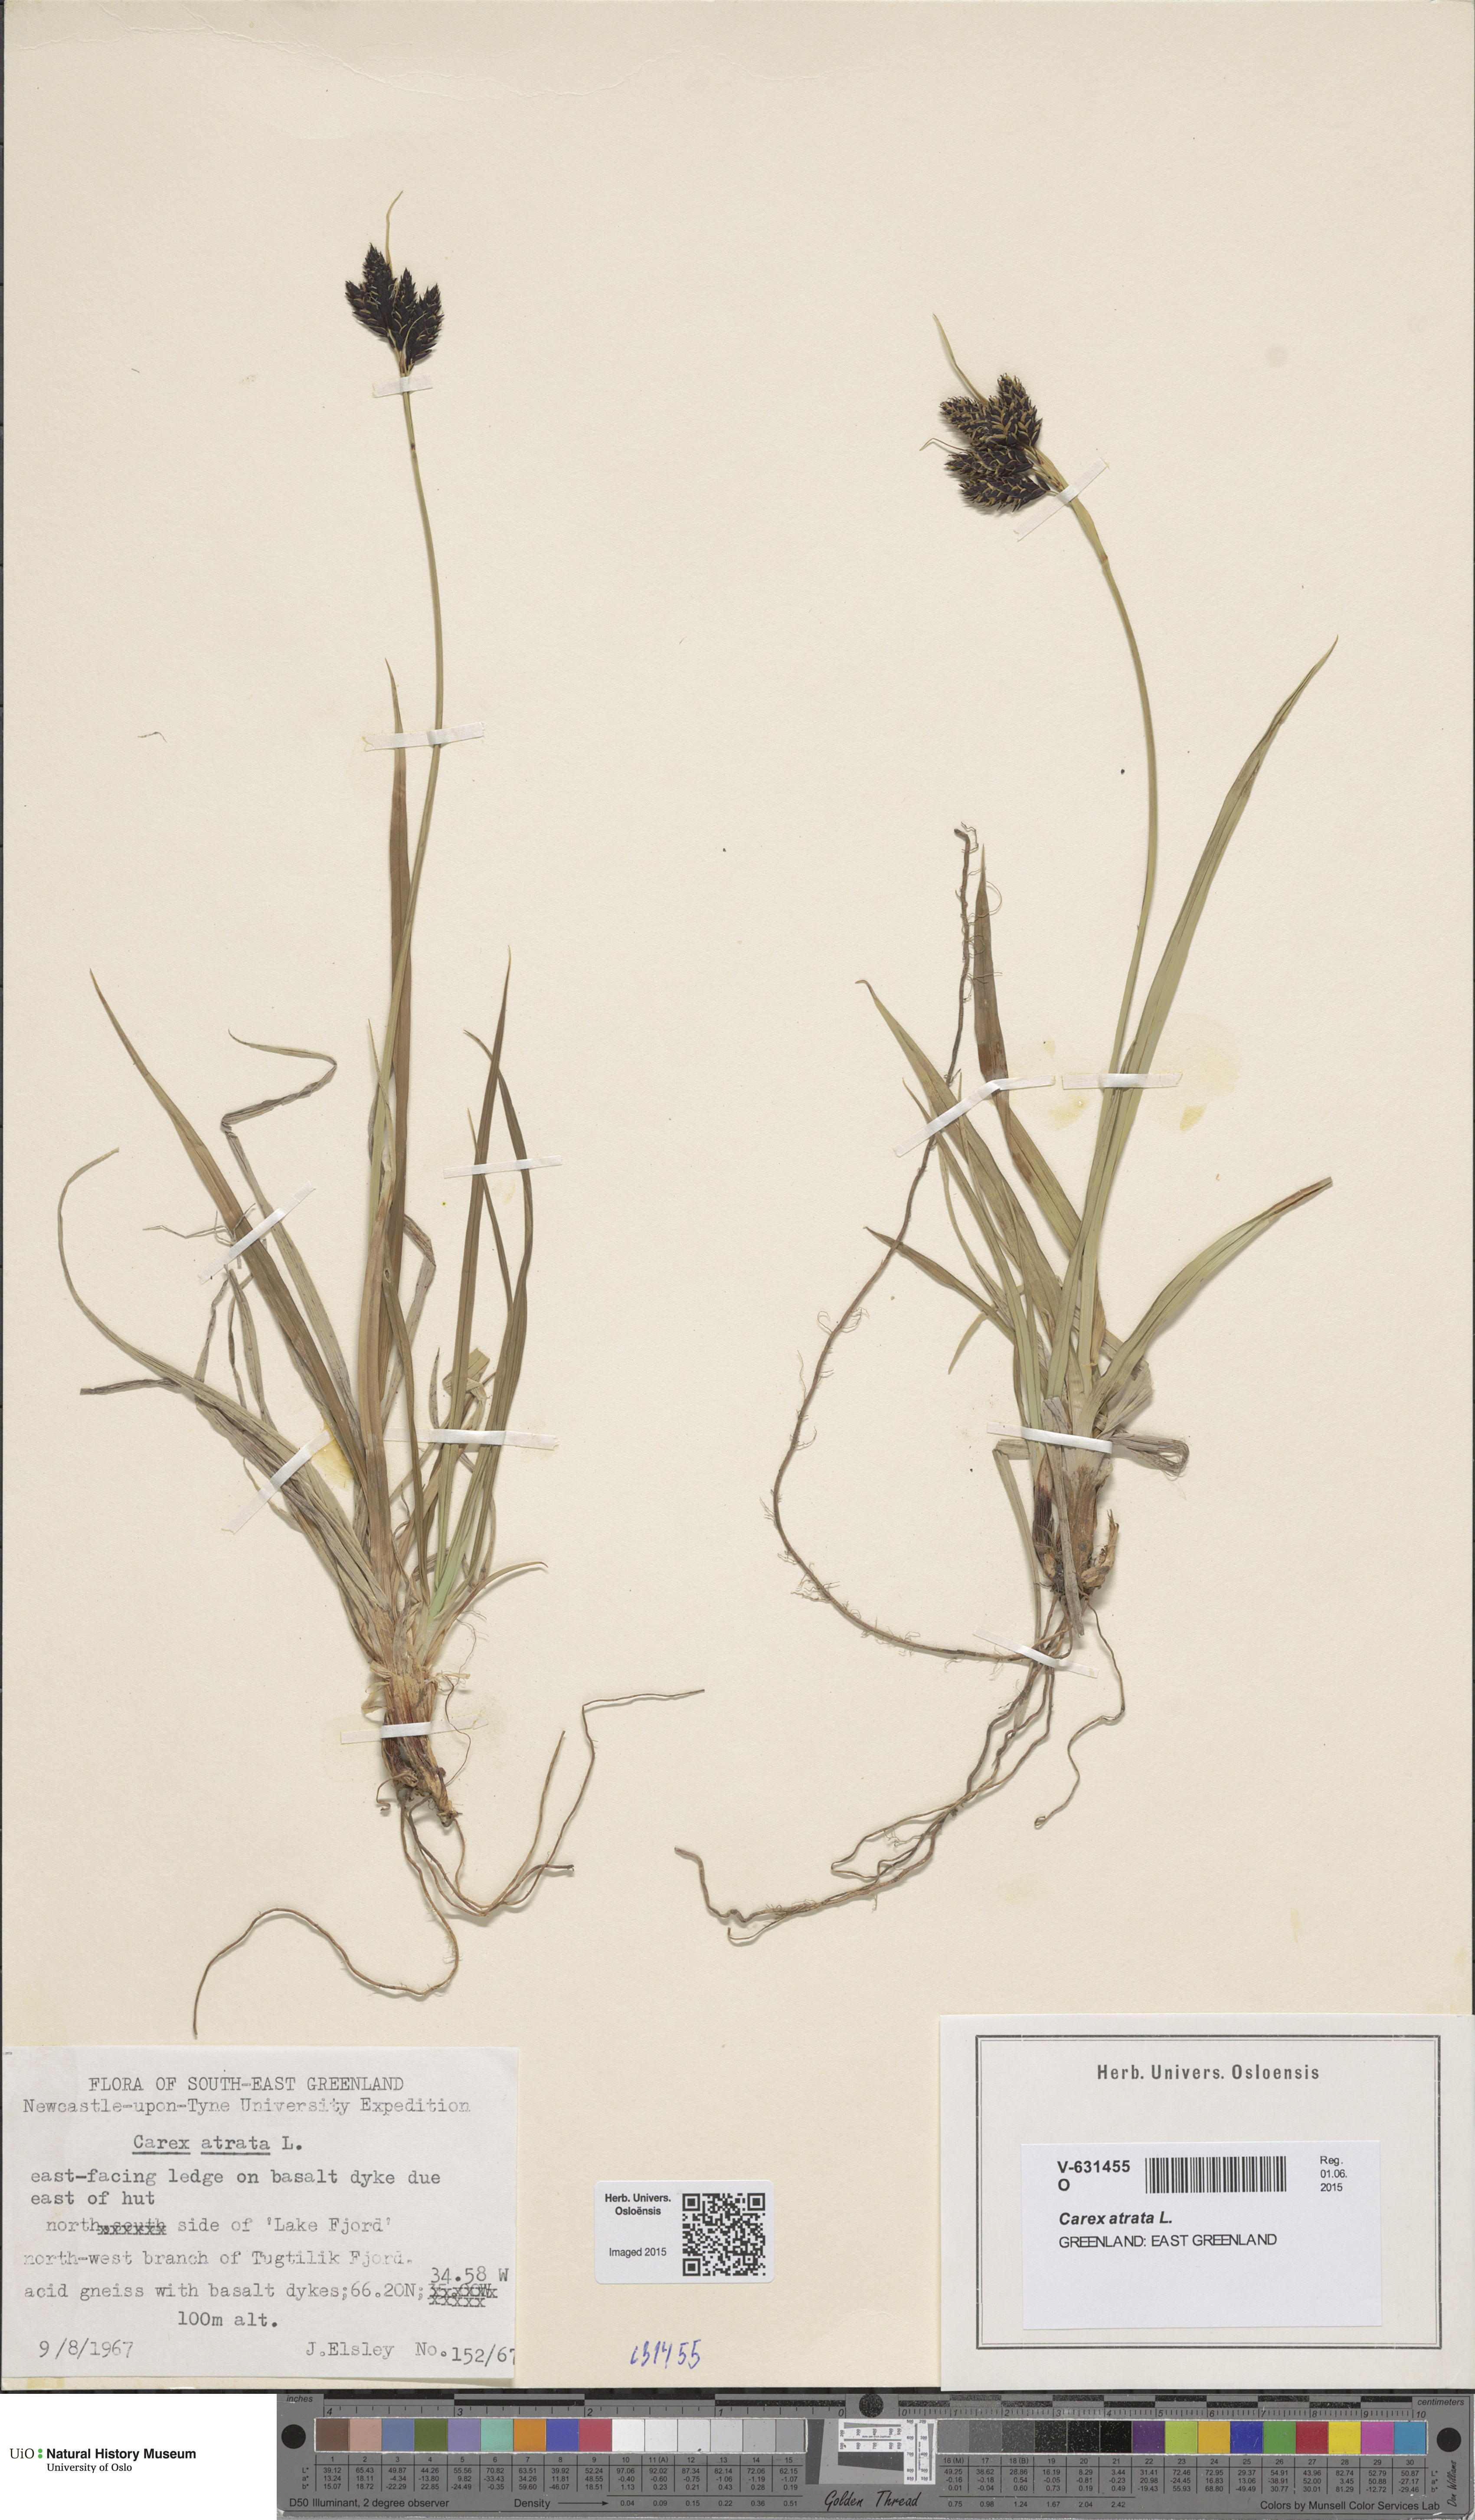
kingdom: Plantae
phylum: Tracheophyta
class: Liliopsida
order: Poales
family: Cyperaceae
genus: Carex
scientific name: Carex atrata
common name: Black alpine sedge
